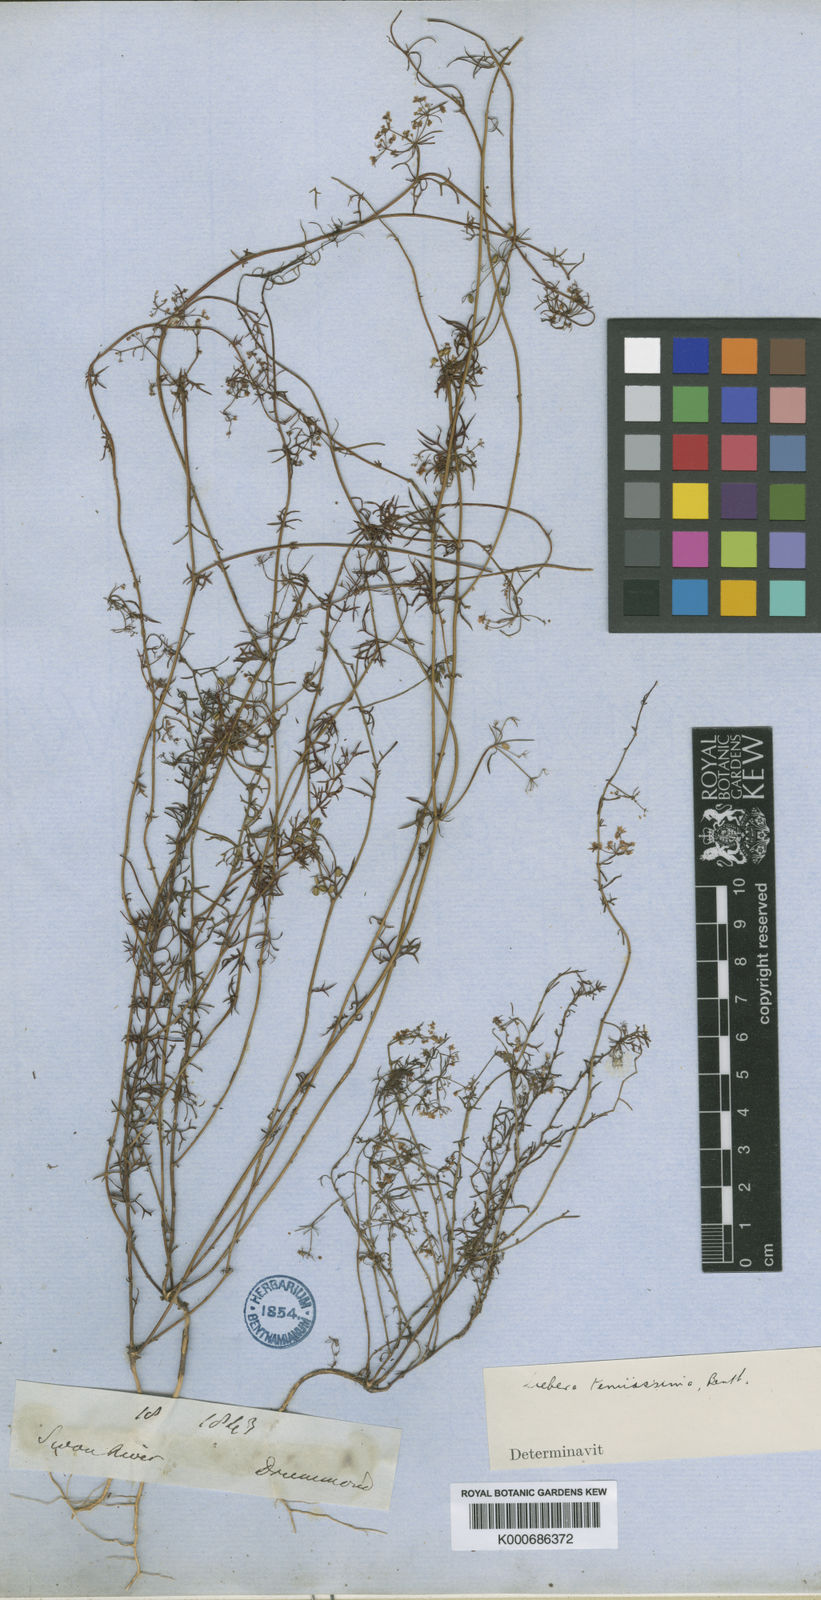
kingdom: Plantae
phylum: Tracheophyta
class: Magnoliopsida
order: Apiales
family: Apiaceae
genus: Platysace
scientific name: Platysace tenuissima
